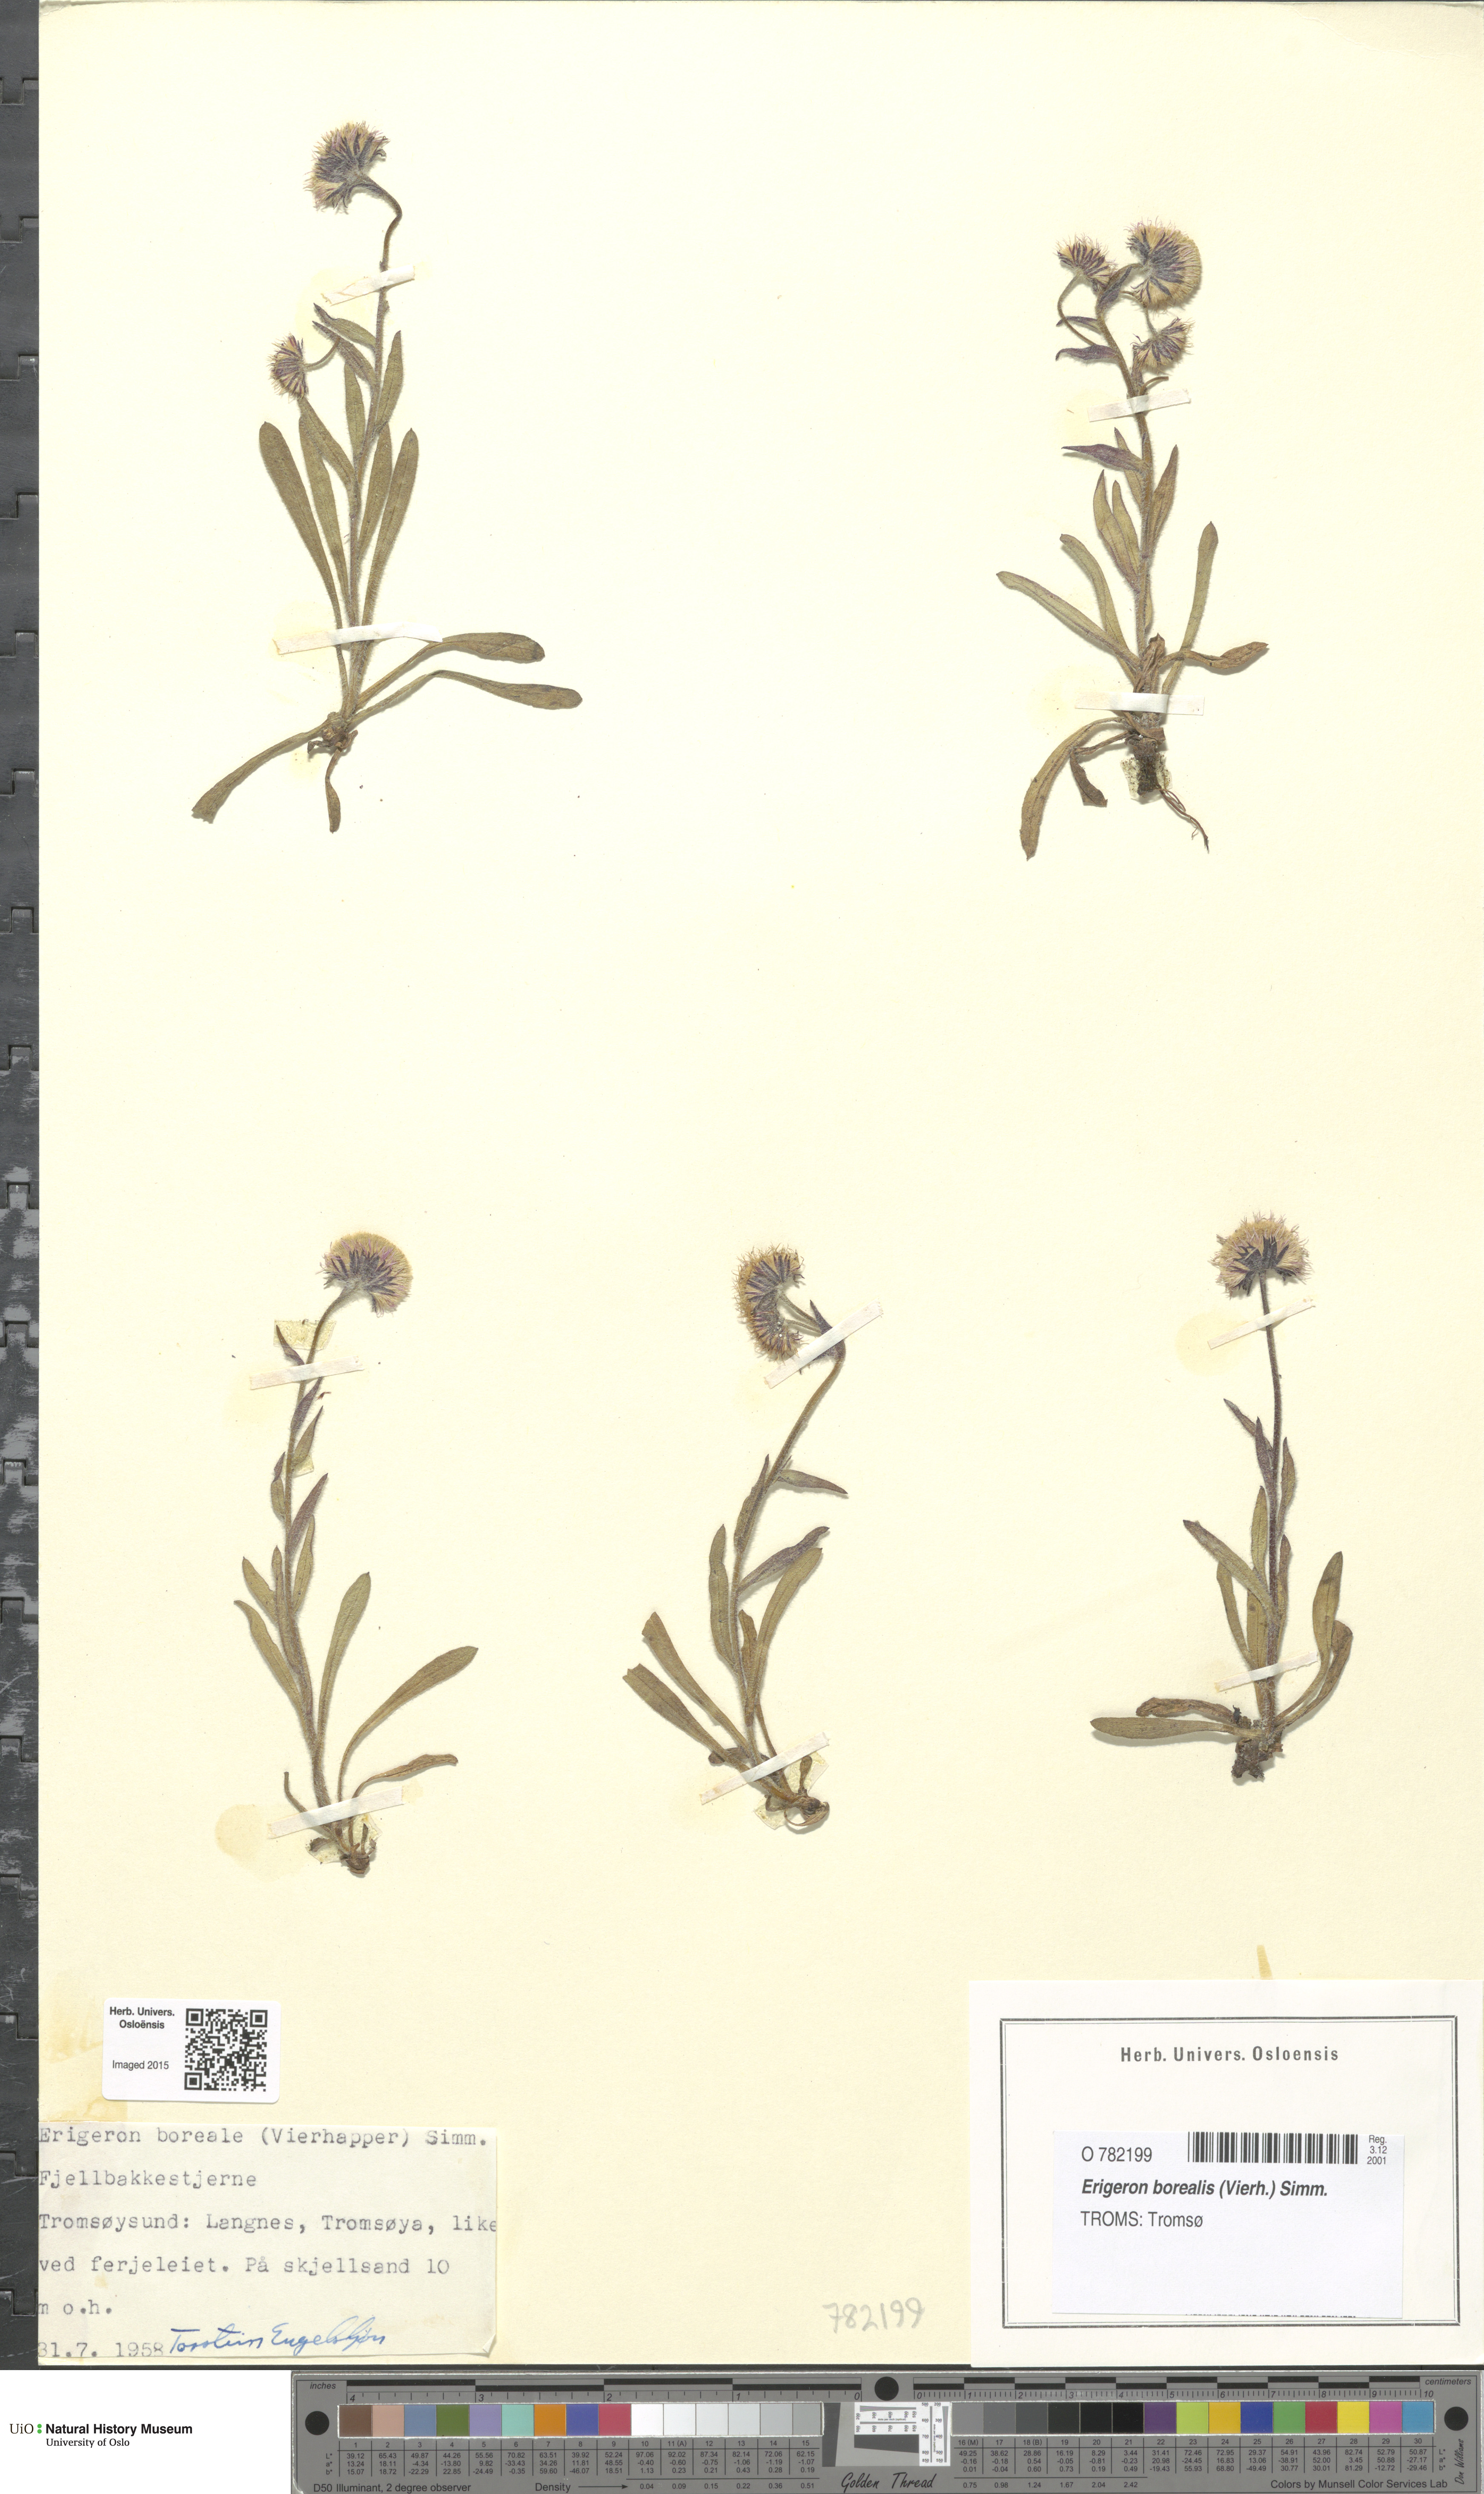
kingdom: Plantae
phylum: Tracheophyta
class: Magnoliopsida
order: Asterales
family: Asteraceae
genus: Erigeron
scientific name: Erigeron borealis
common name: Alpine fleabane
